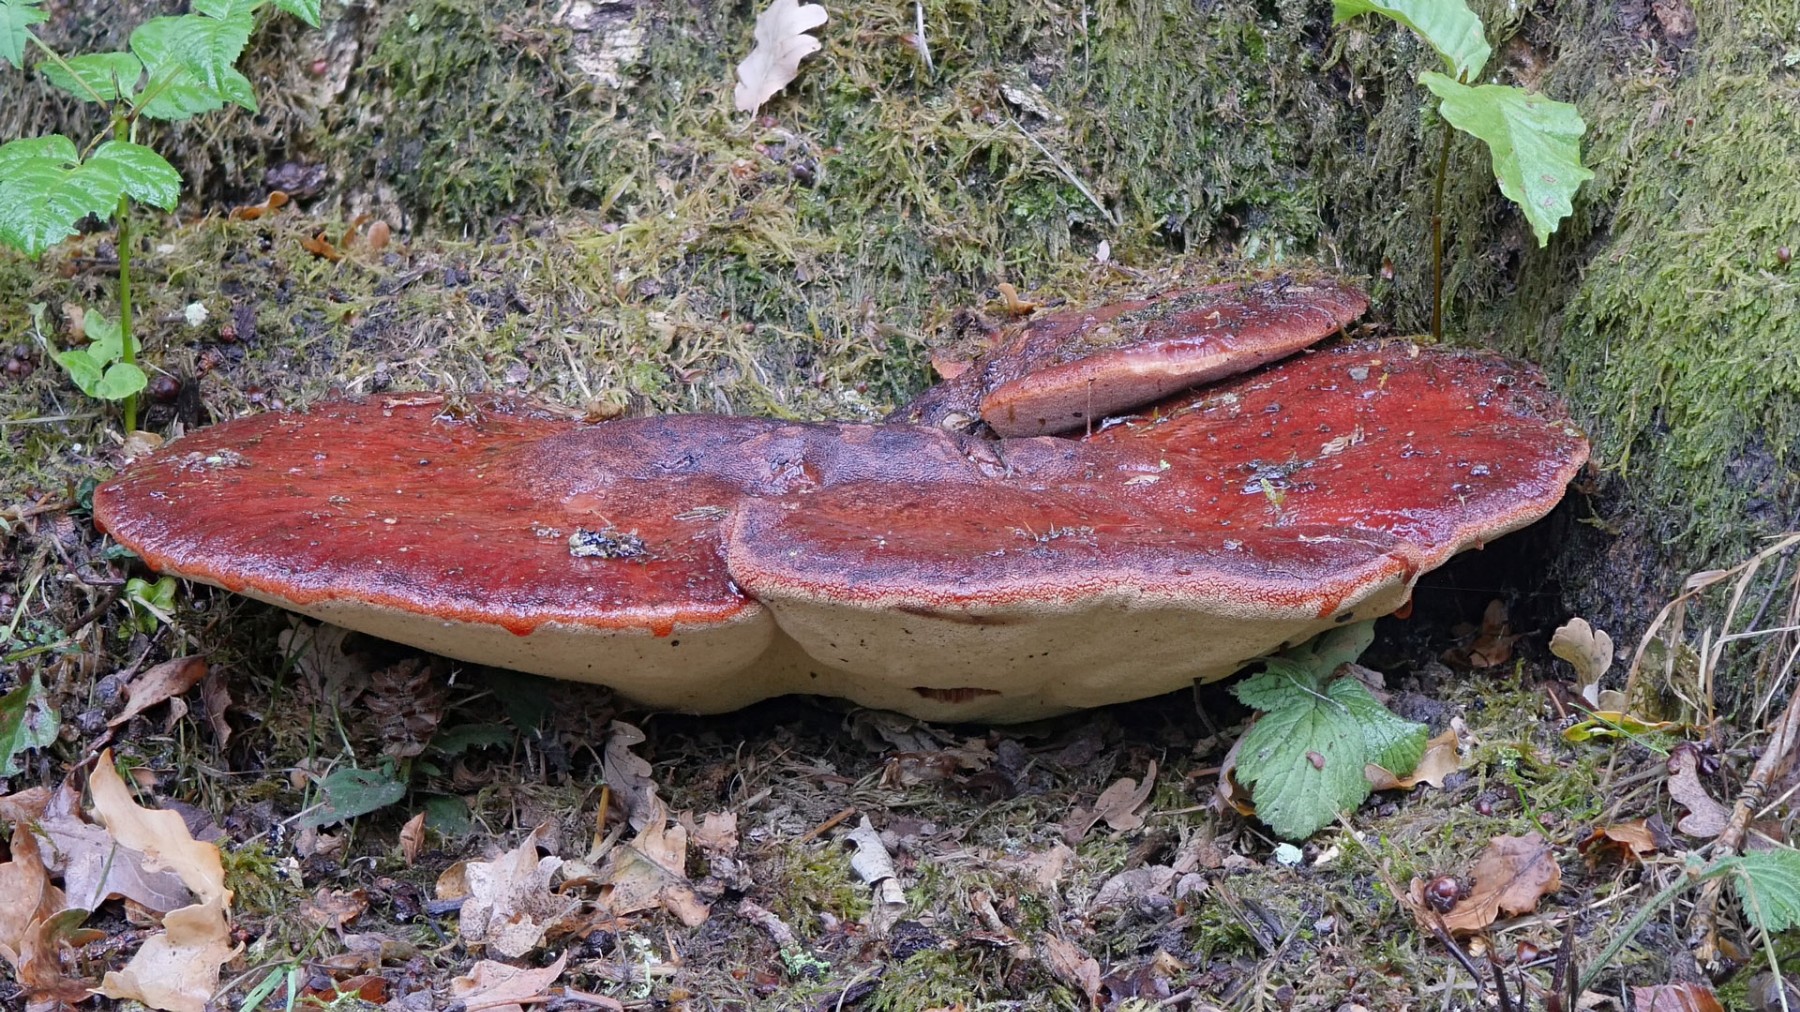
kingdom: Fungi
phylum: Basidiomycota
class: Agaricomycetes
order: Agaricales
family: Fistulinaceae
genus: Fistulina
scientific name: Fistulina hepatica
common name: oksetunge
